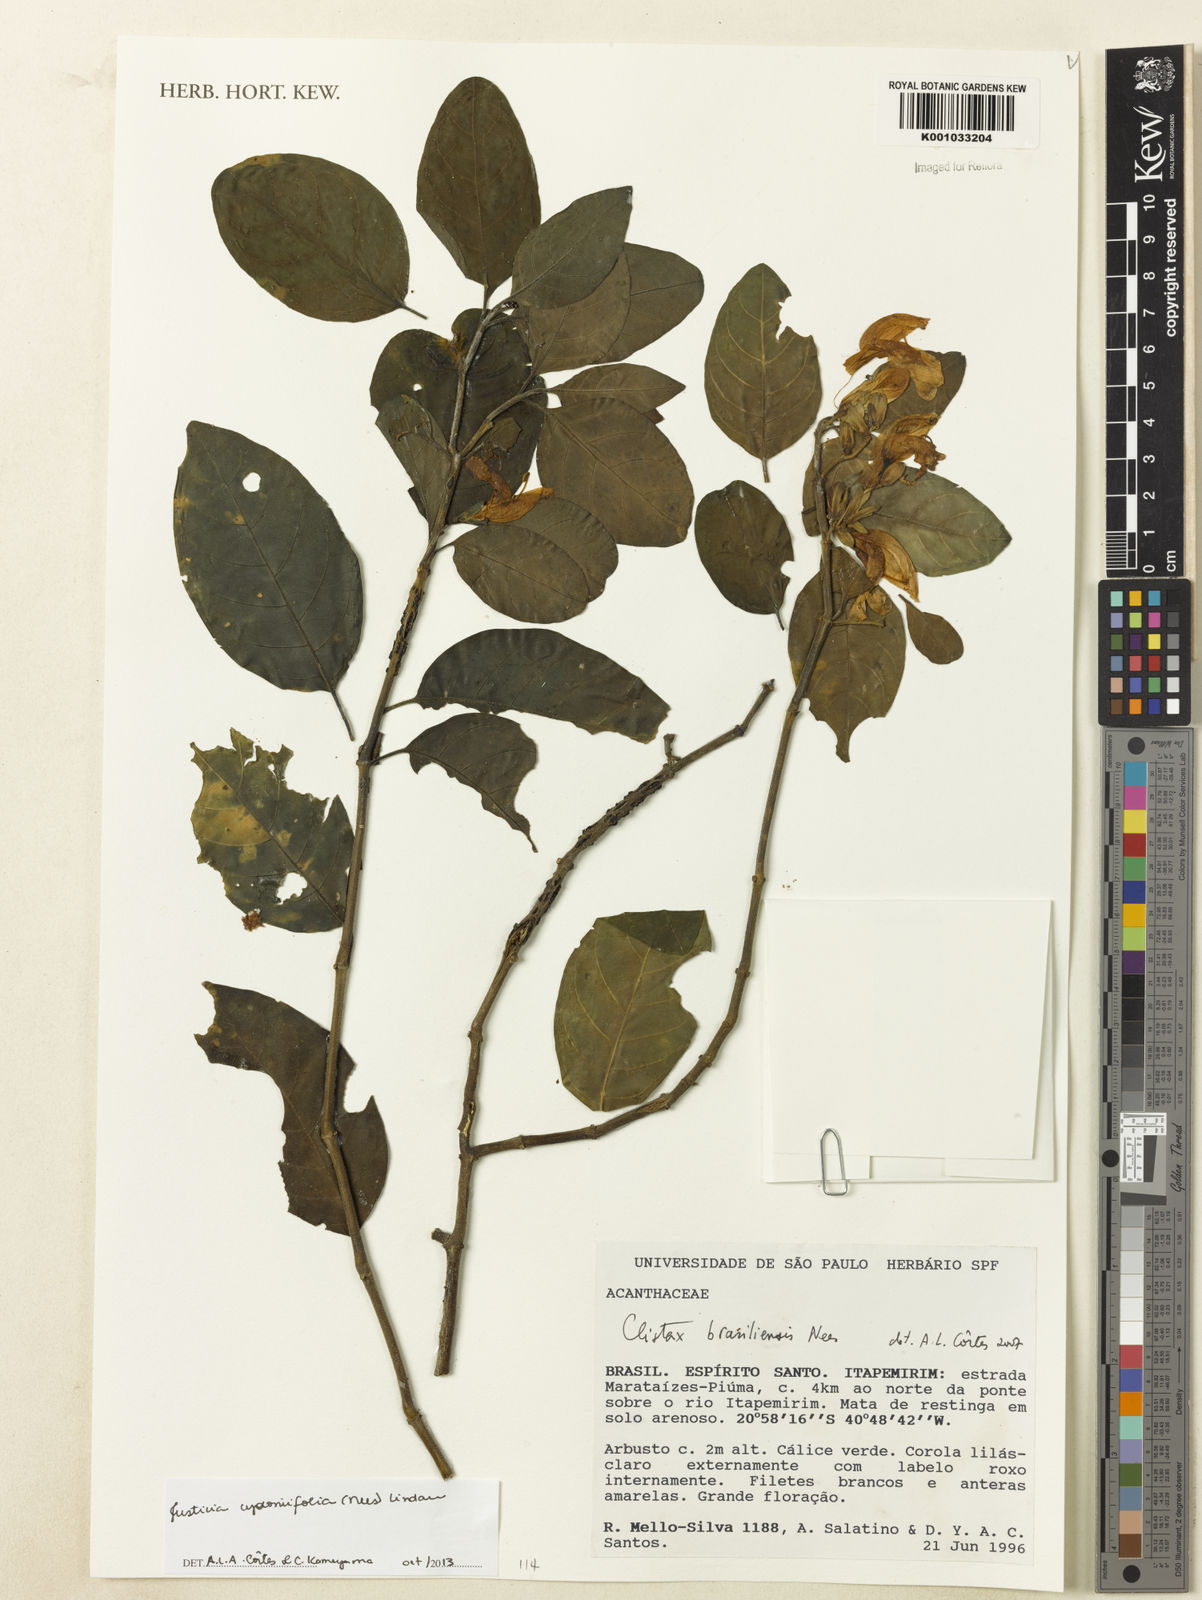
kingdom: Plantae
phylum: Tracheophyta
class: Magnoliopsida
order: Lamiales
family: Acanthaceae
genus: Justicia
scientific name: Justicia
